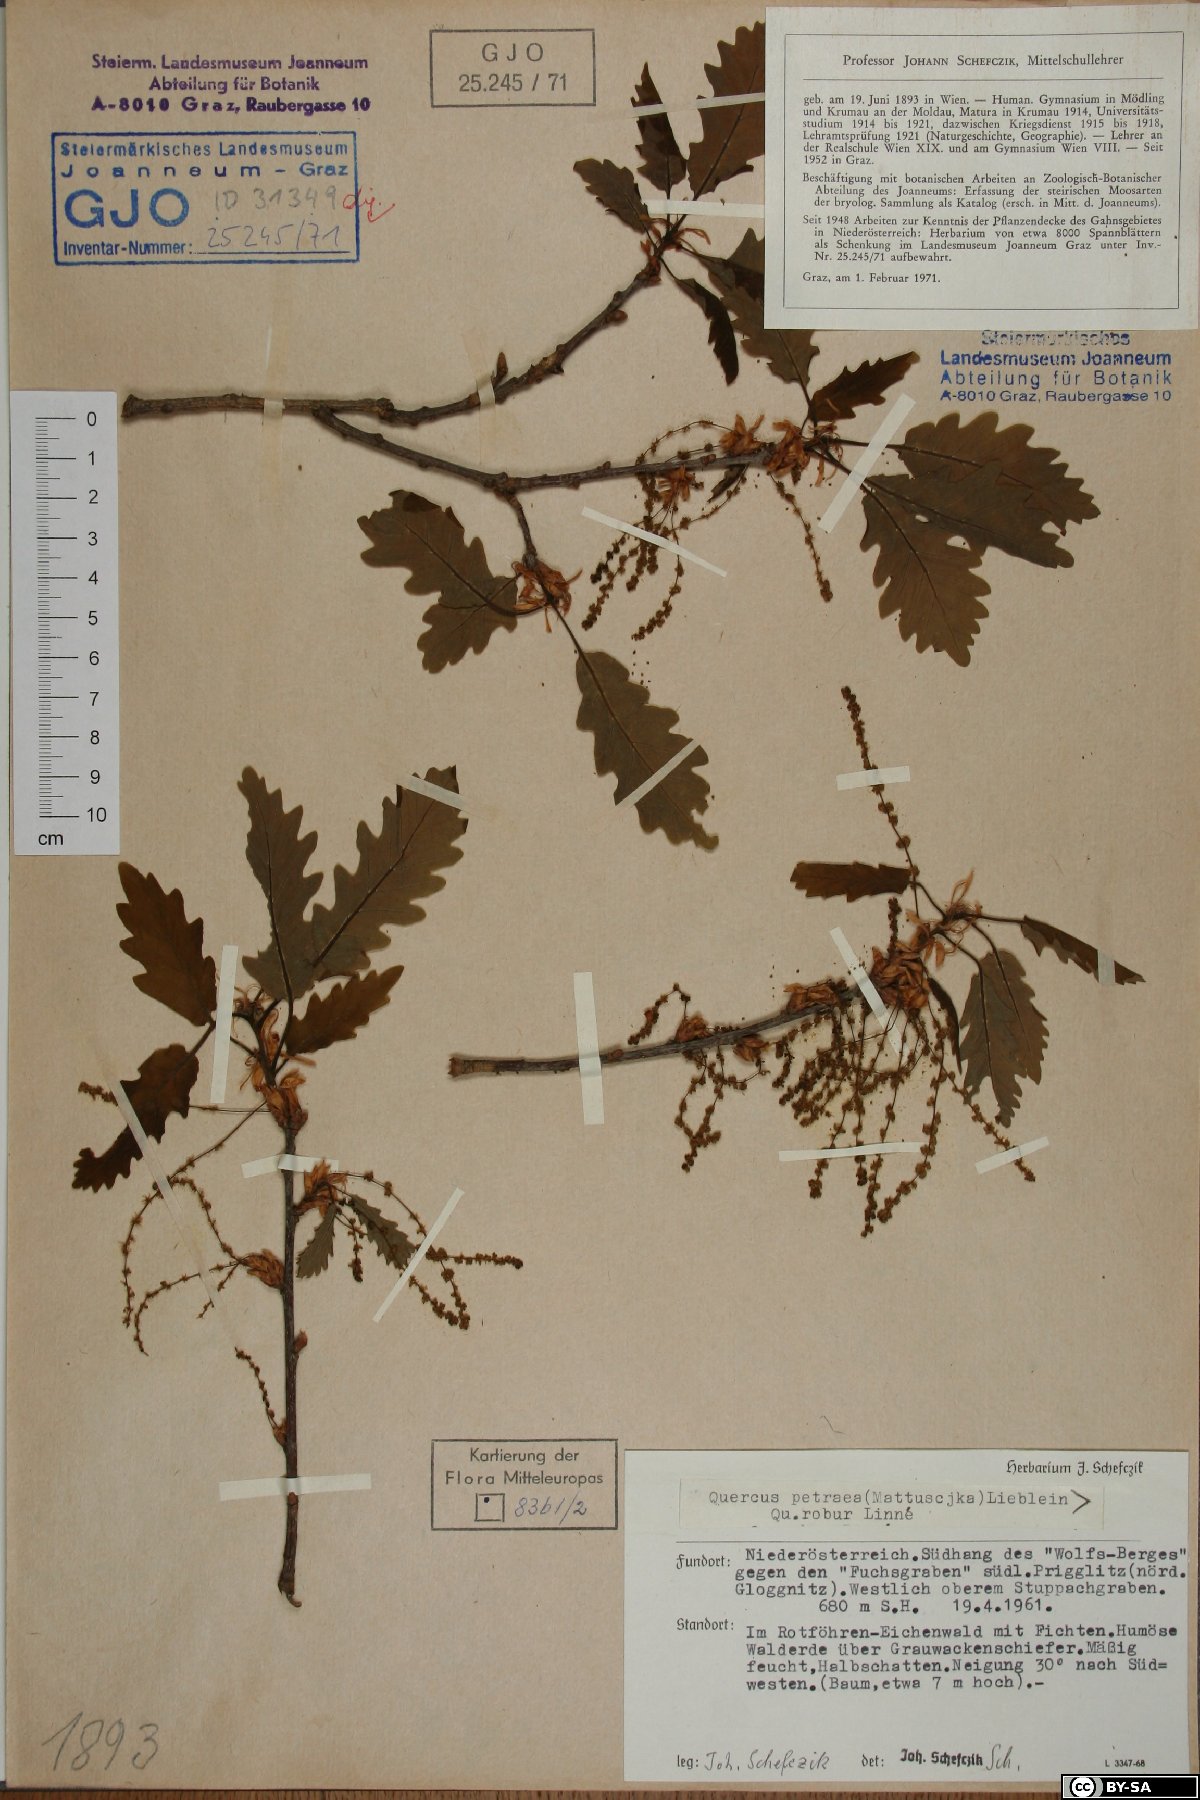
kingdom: Plantae
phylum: Tracheophyta
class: Magnoliopsida
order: Fagales
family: Fagaceae
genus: Quercus
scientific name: Quercus petraea
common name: Sessile oak
